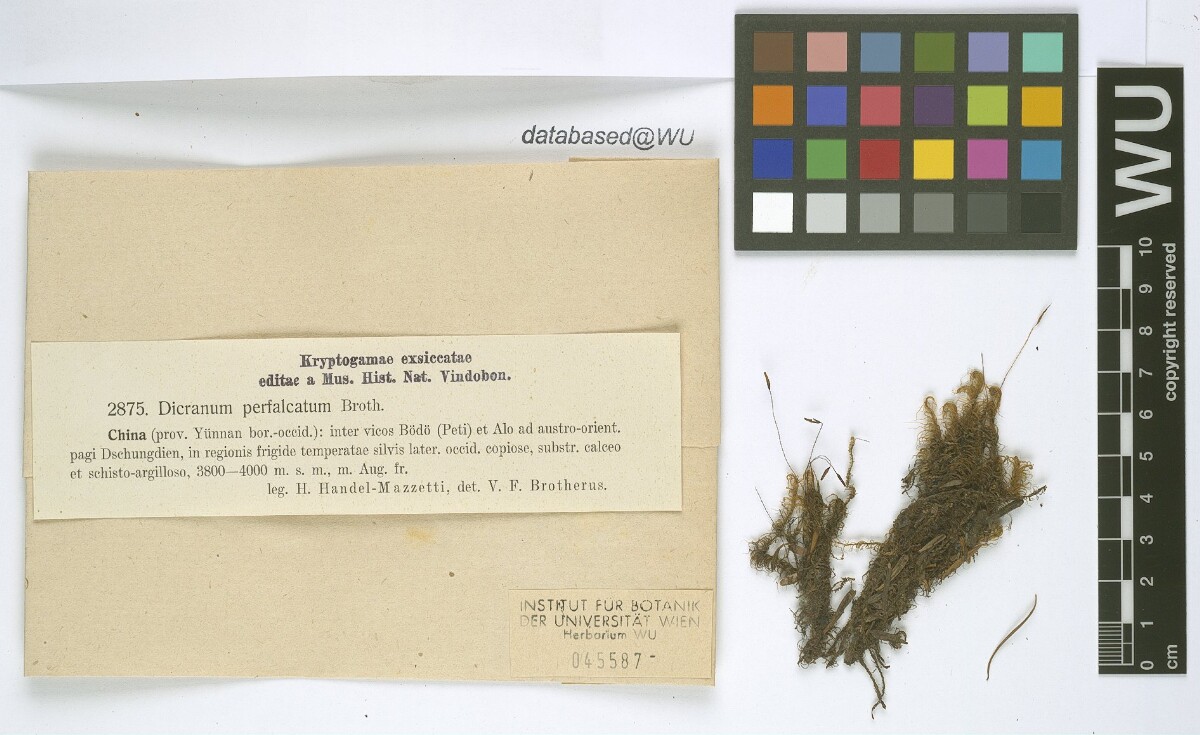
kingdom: Plantae
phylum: Bryophyta
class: Bryopsida
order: Dicranales
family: Dicranaceae
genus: Dicranum
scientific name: Dicranum drummondii
